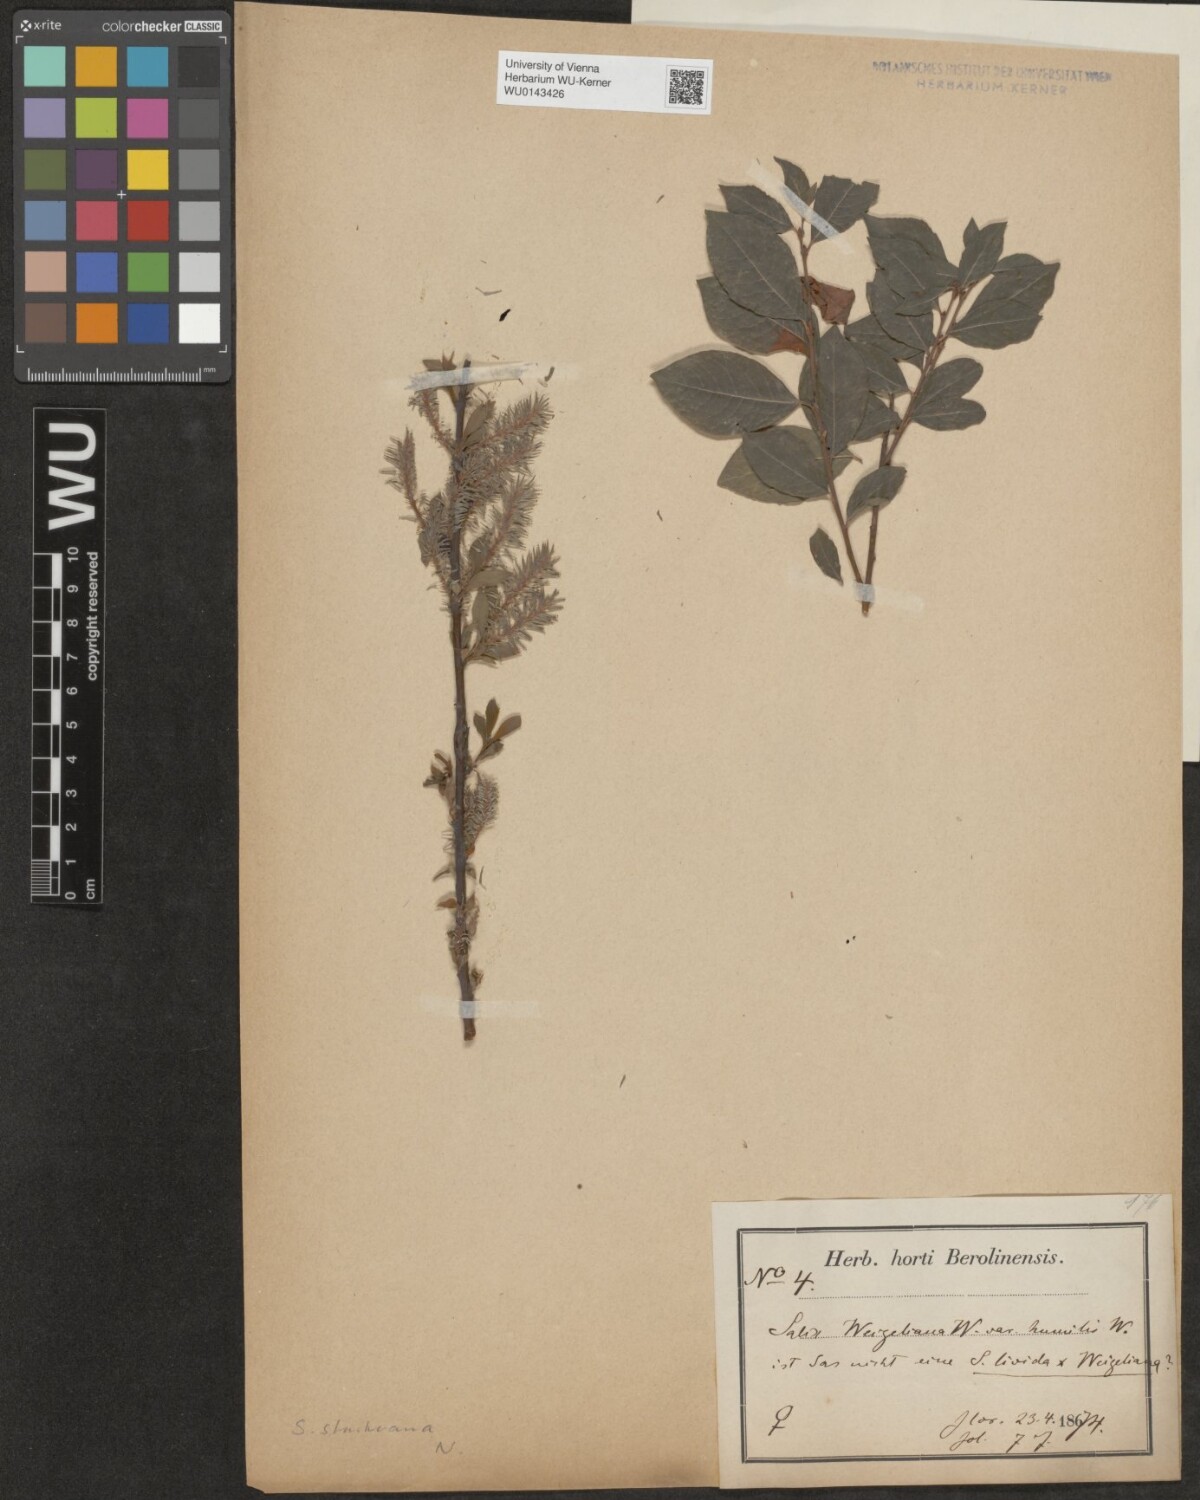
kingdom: Plantae
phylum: Tracheophyta
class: Magnoliopsida
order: Malpighiales
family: Salicaceae
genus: Salix
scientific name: Salix starkeana
